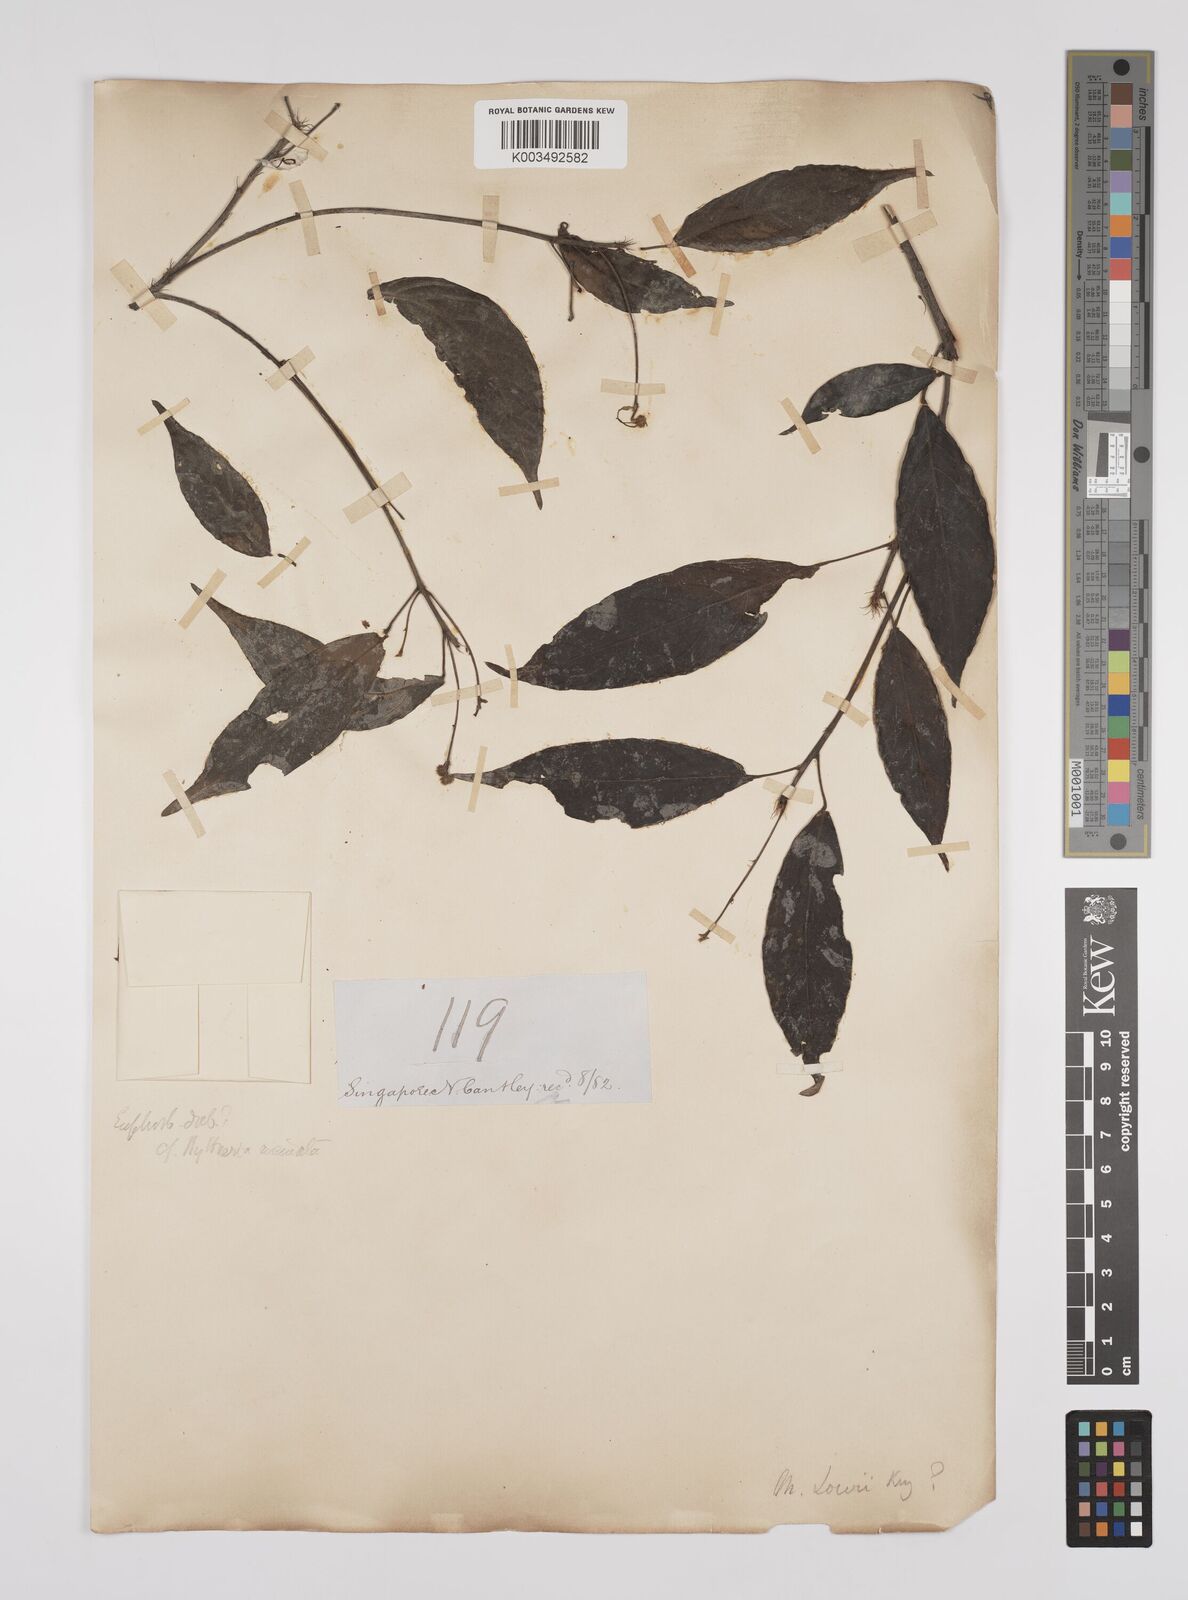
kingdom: Plantae
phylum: Tracheophyta
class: Magnoliopsida
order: Malpighiales
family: Euphorbiaceae
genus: Macaranga
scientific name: Macaranga lowii
